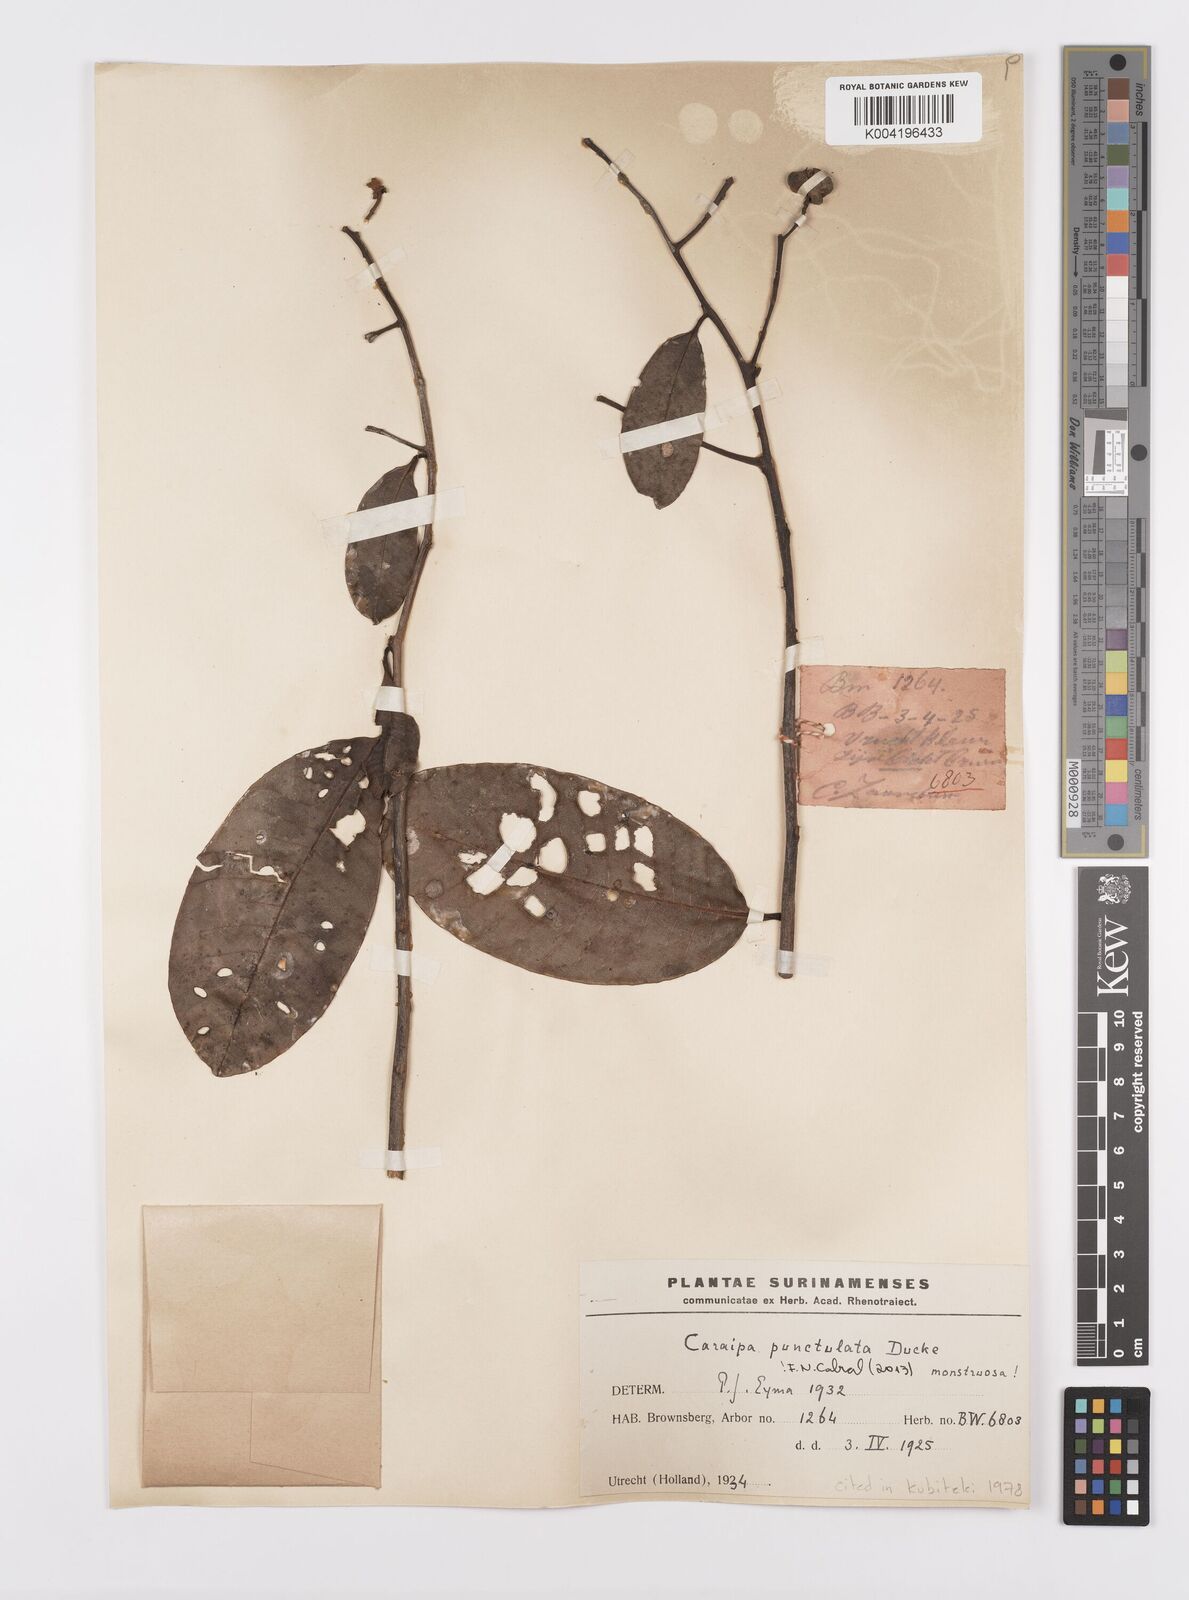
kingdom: Plantae
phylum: Tracheophyta
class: Magnoliopsida
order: Malpighiales
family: Calophyllaceae
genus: Caraipa
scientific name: Caraipa punctulata
